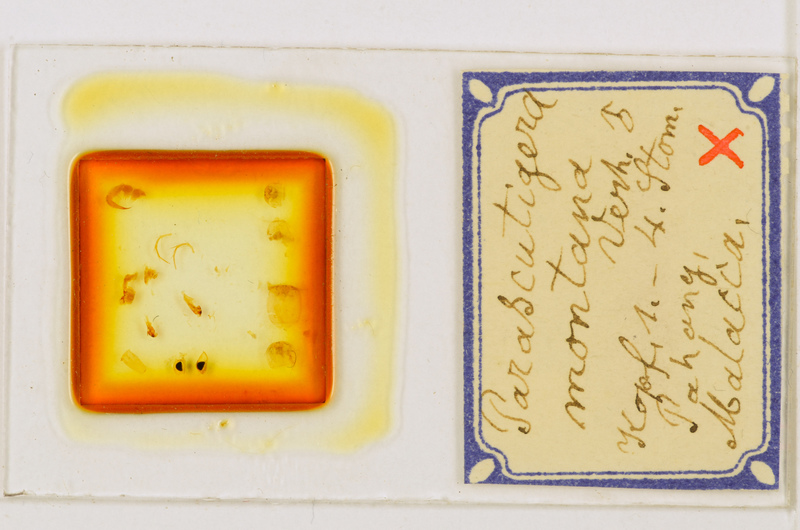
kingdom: Animalia
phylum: Arthropoda
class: Chilopoda
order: Scutigeromorpha
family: Scutigeridae
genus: Parascutigera
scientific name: Parascutigera montana
